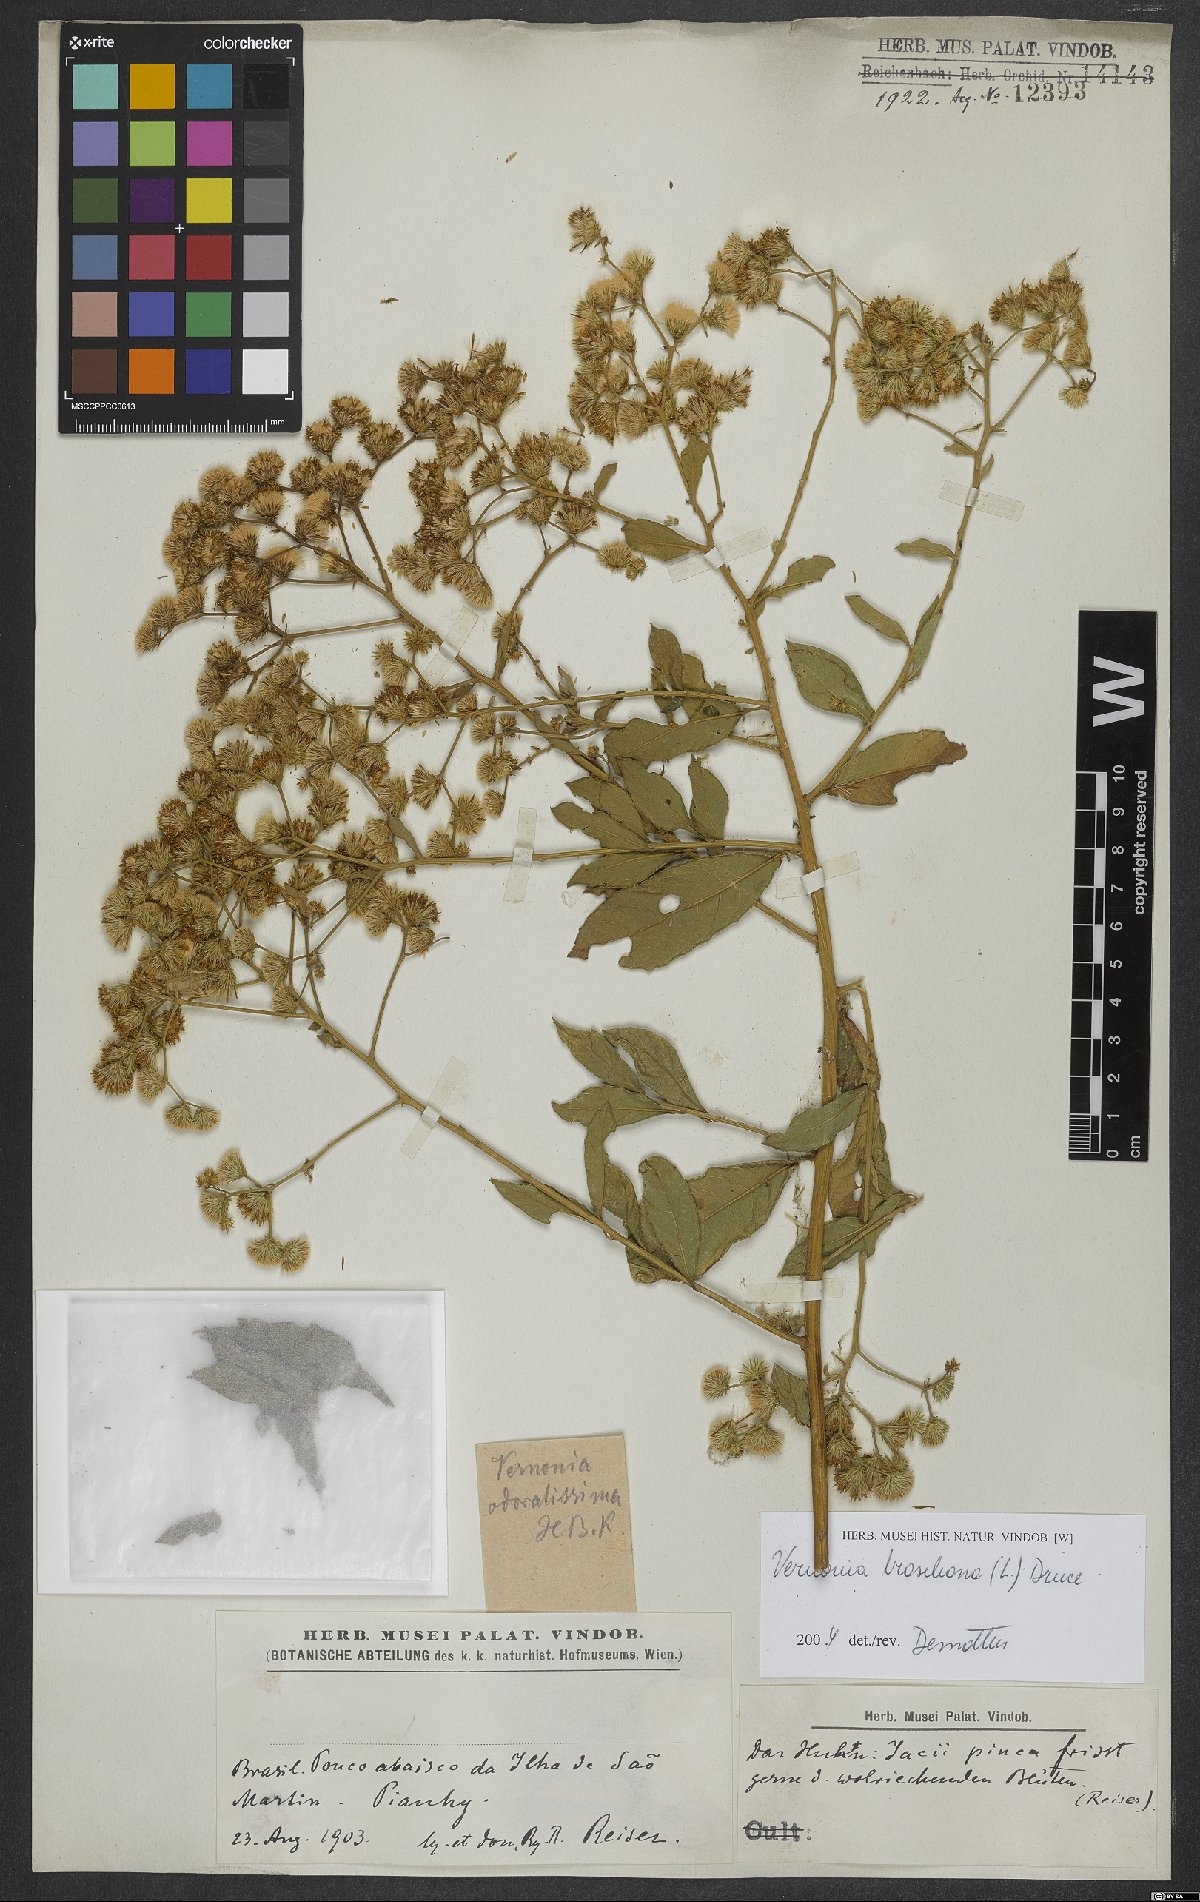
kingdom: Plantae
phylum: Tracheophyta
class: Magnoliopsida
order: Asterales
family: Asteraceae
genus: Vernonanthura
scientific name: Vernonanthura brasiliana
